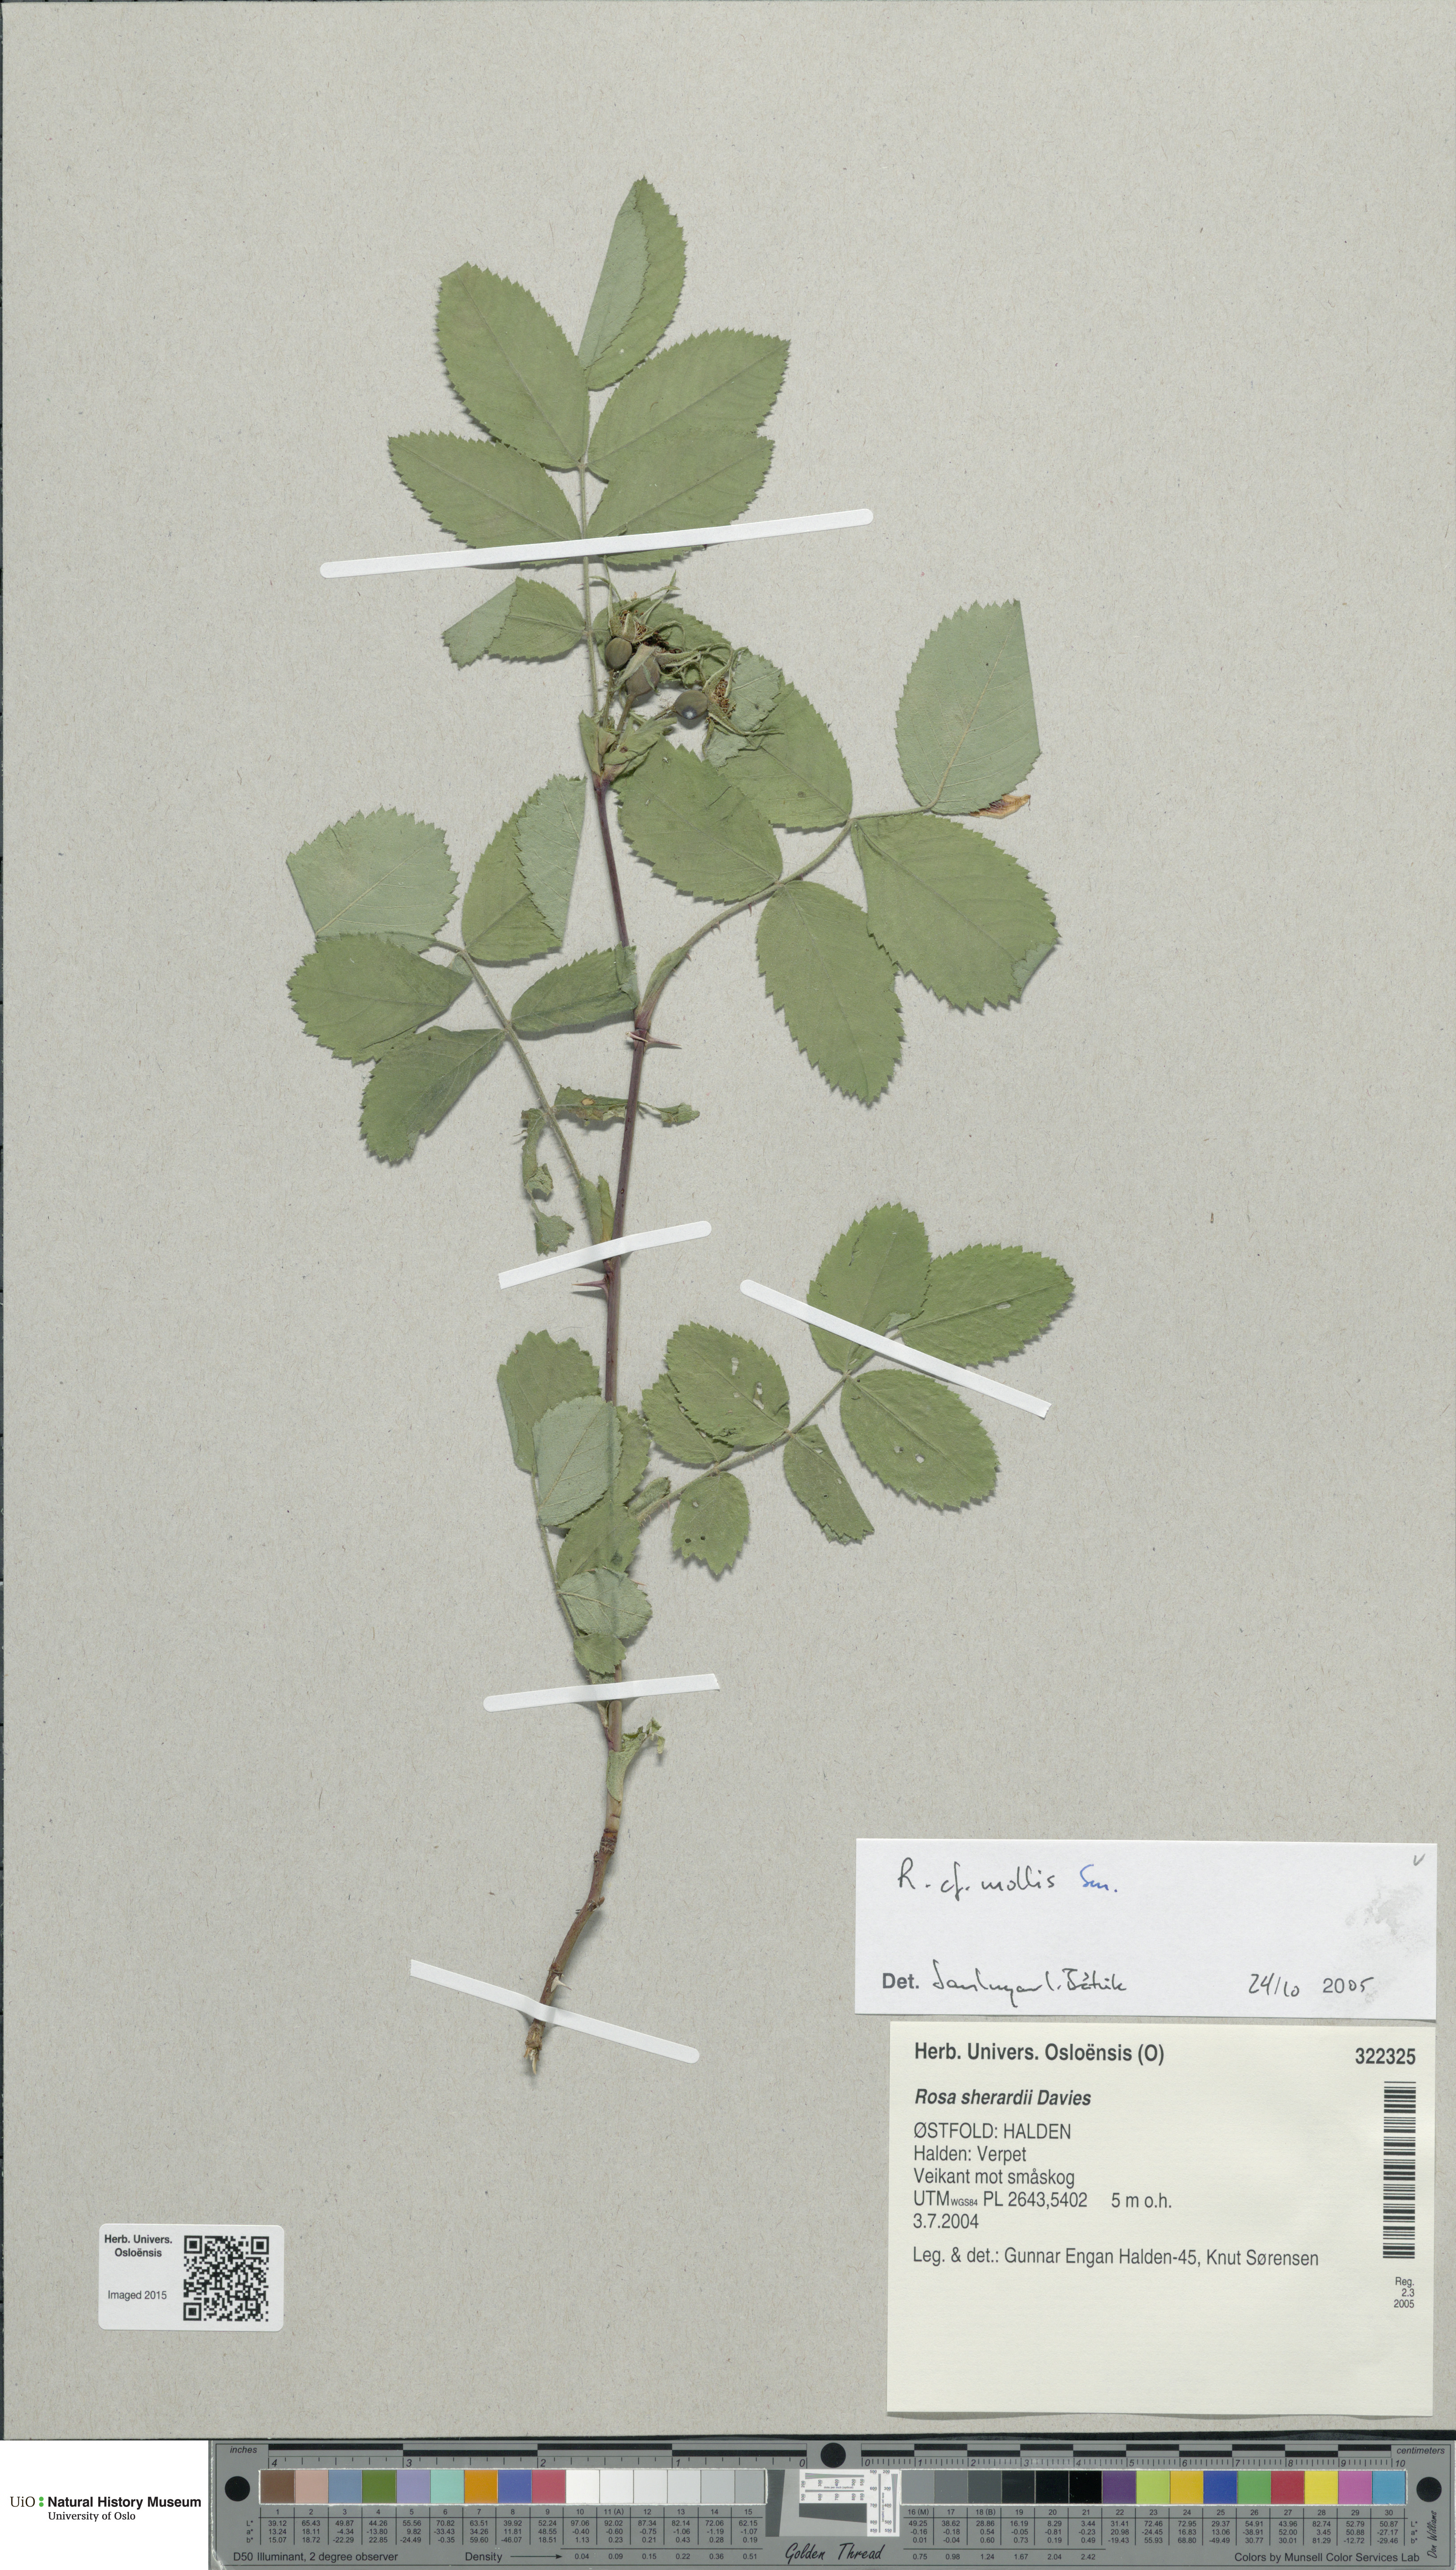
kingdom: Plantae
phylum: Tracheophyta
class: Magnoliopsida
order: Rosales
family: Rosaceae
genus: Rosa
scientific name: Rosa mollis
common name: Rose
